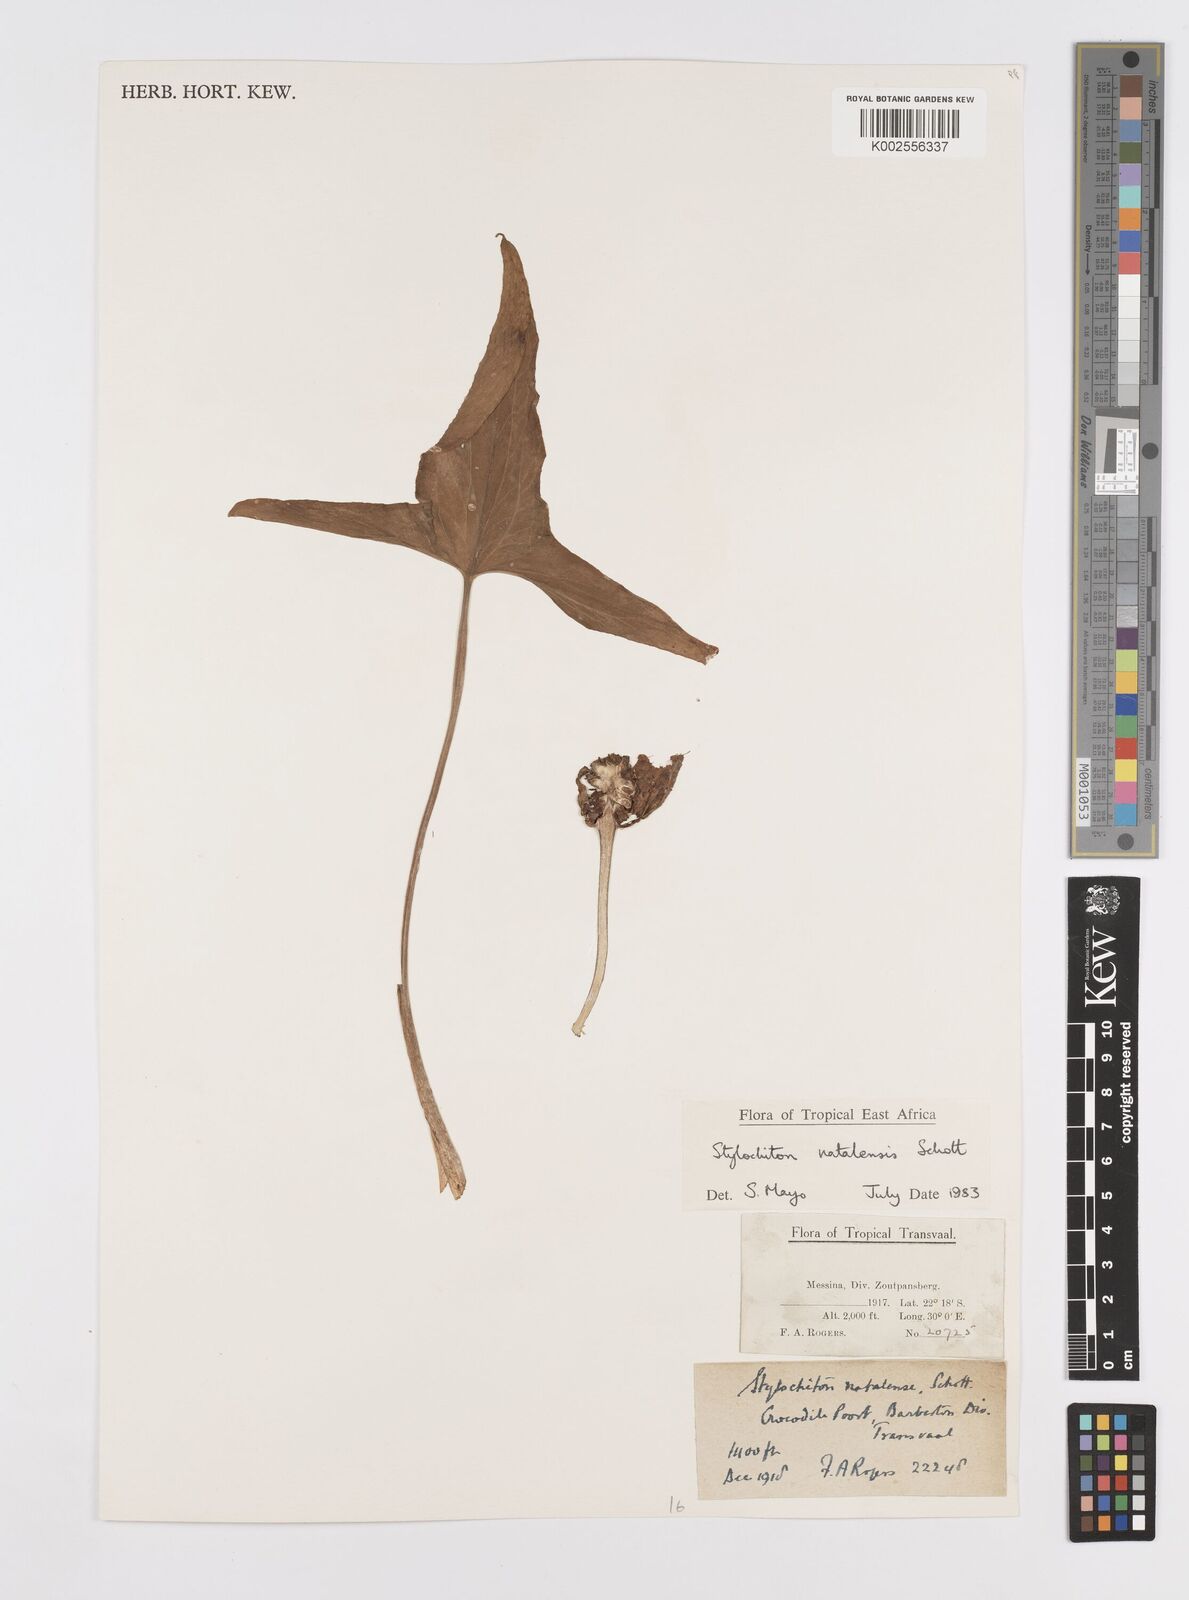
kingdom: Plantae
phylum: Tracheophyta
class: Liliopsida
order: Alismatales
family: Araceae
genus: Stylochaeton
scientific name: Stylochaeton natalense
